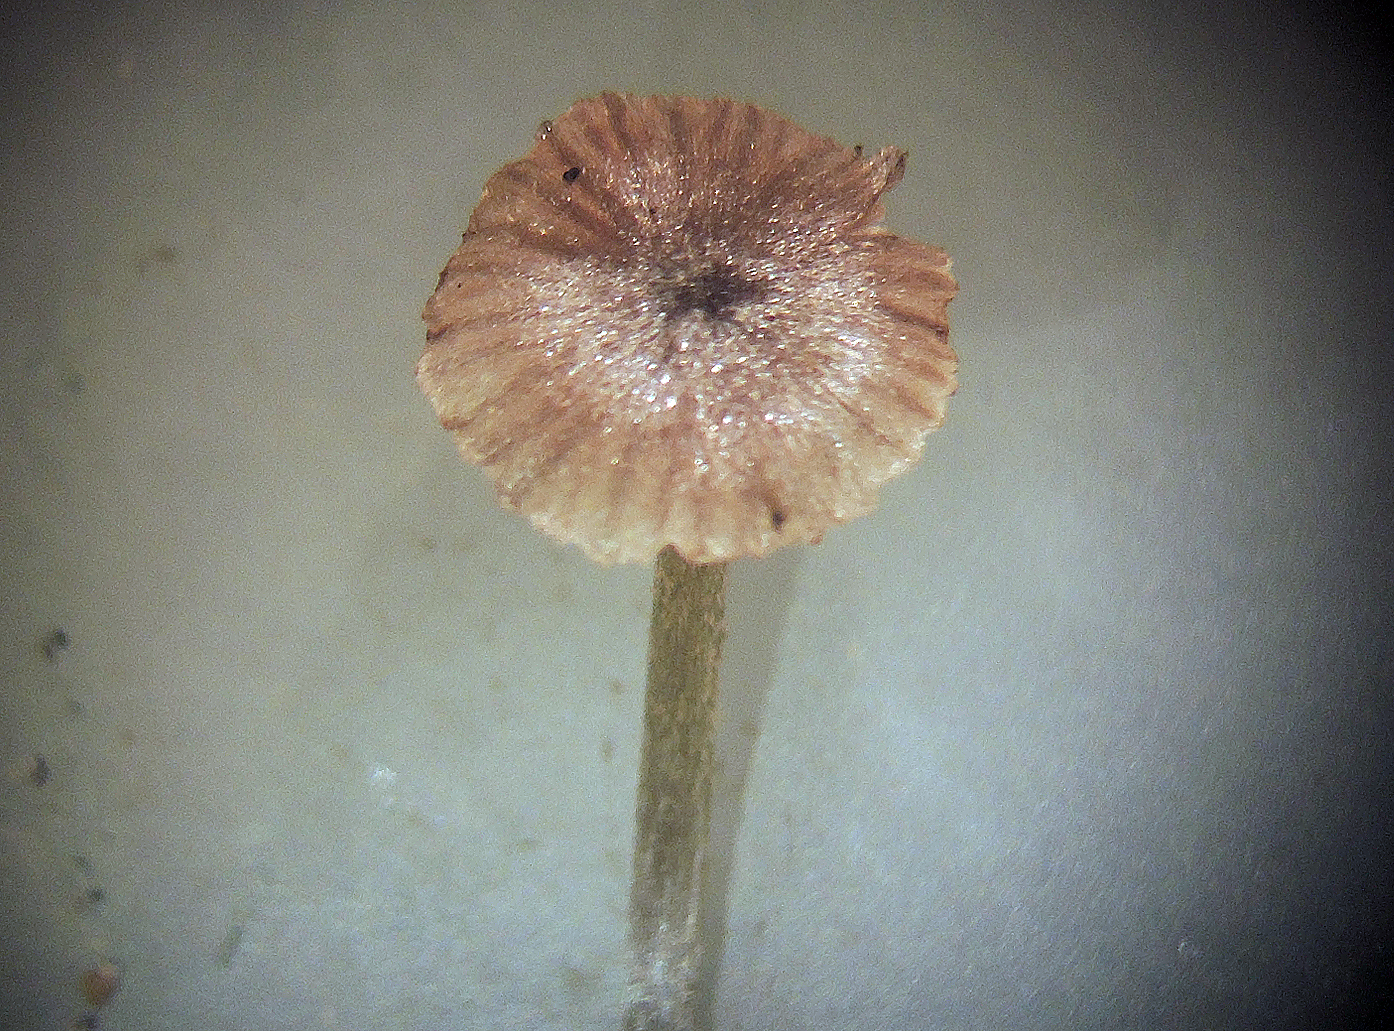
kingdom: Fungi
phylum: Basidiomycota
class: Agaricomycetes
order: Agaricales
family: Entolomataceae
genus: Entoloma
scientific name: Entoloma
